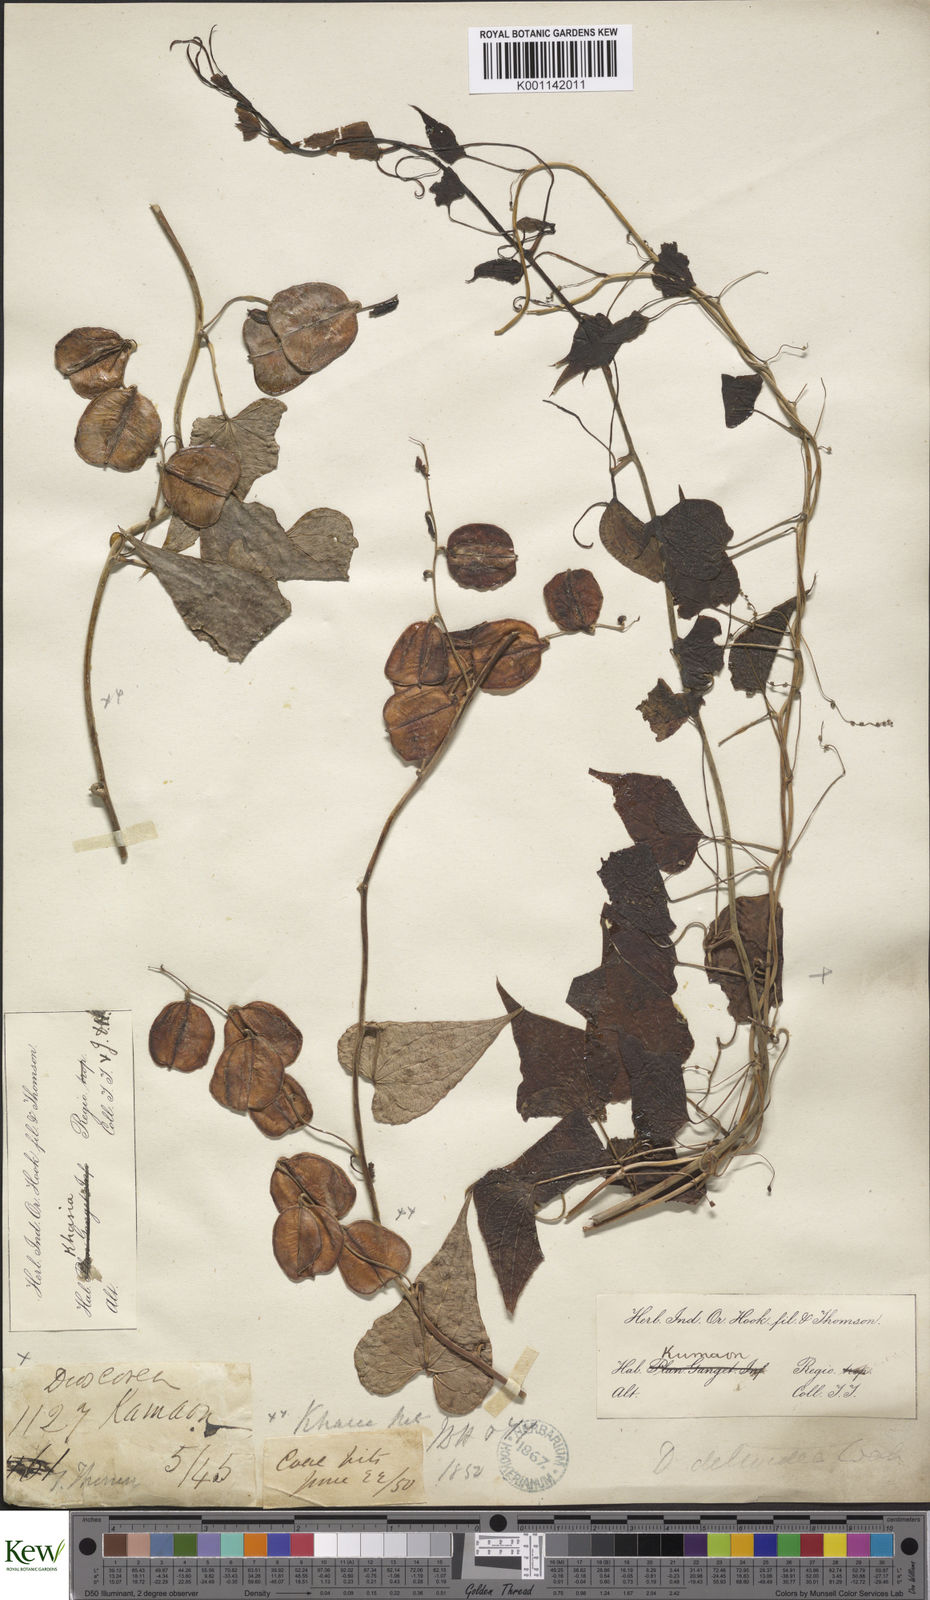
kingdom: Plantae
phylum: Tracheophyta
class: Liliopsida
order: Dioscoreales
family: Dioscoreaceae
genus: Dioscorea
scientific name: Dioscorea deltoidea
